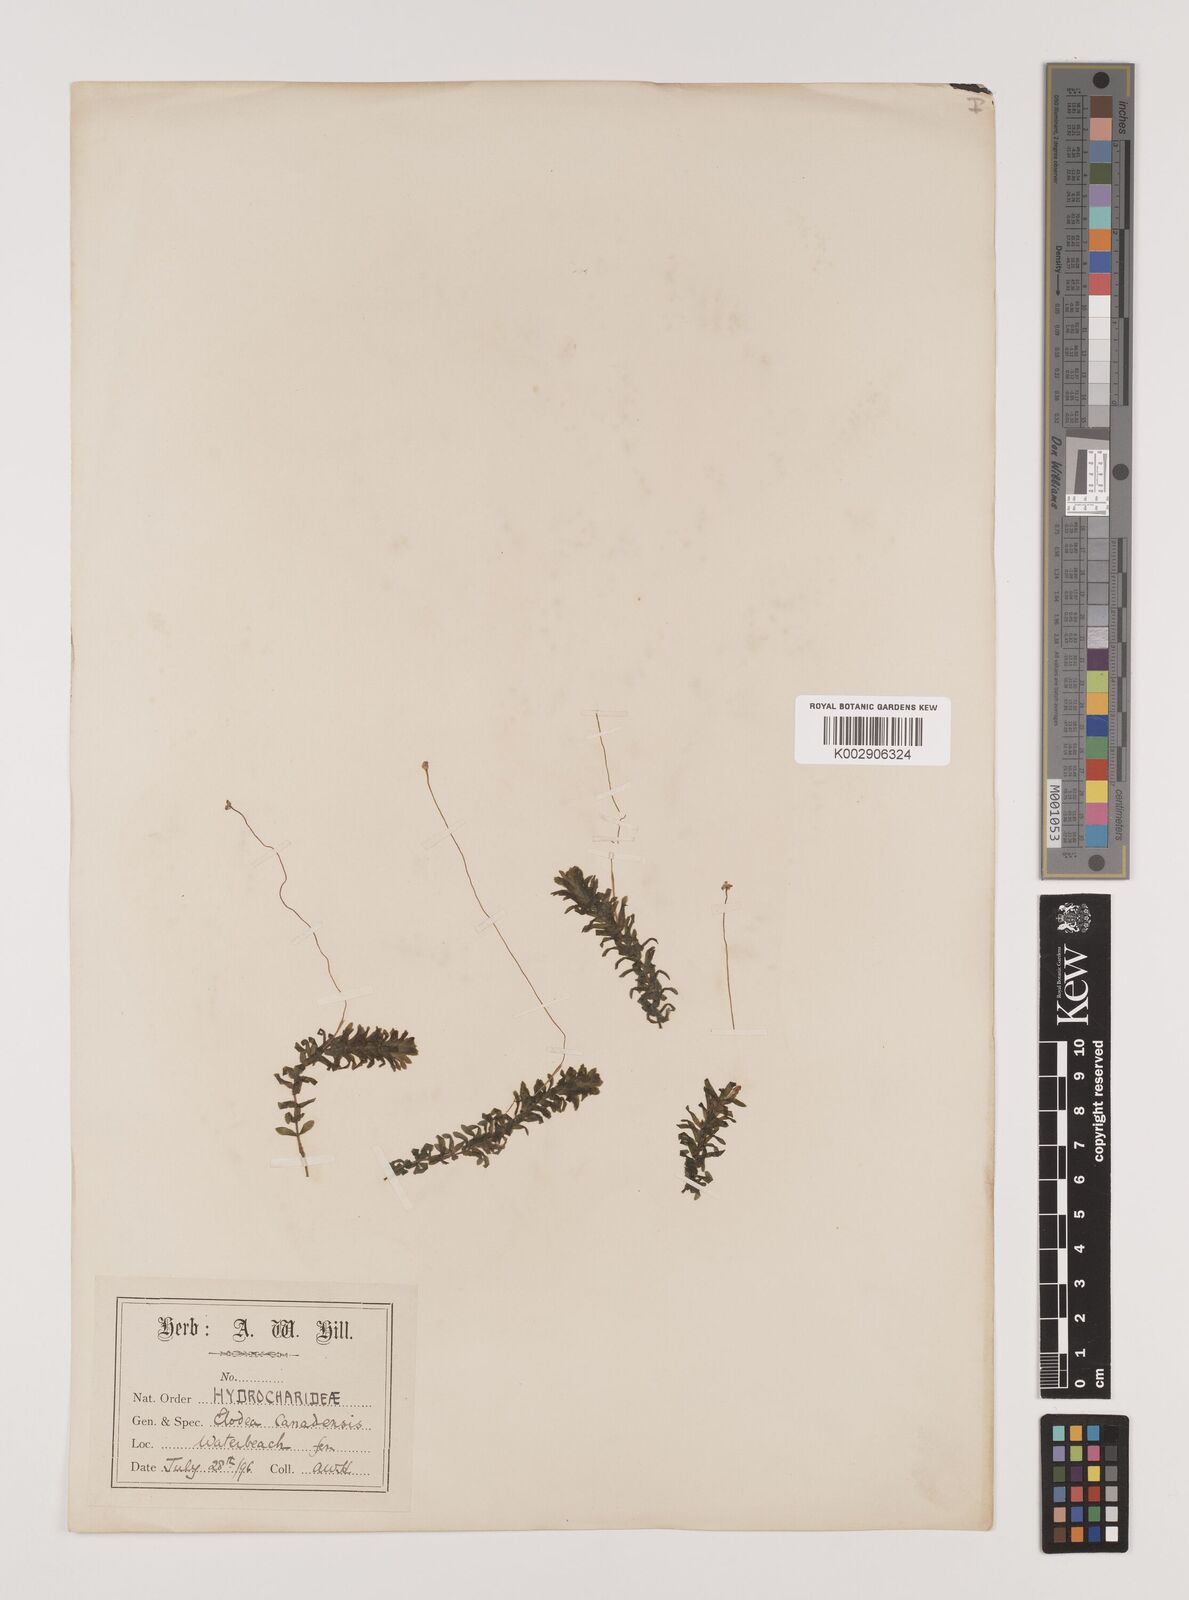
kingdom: Plantae
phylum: Tracheophyta
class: Liliopsida
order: Alismatales
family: Hydrocharitaceae
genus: Elodea
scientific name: Elodea canadensis
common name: Canadian waterweed
